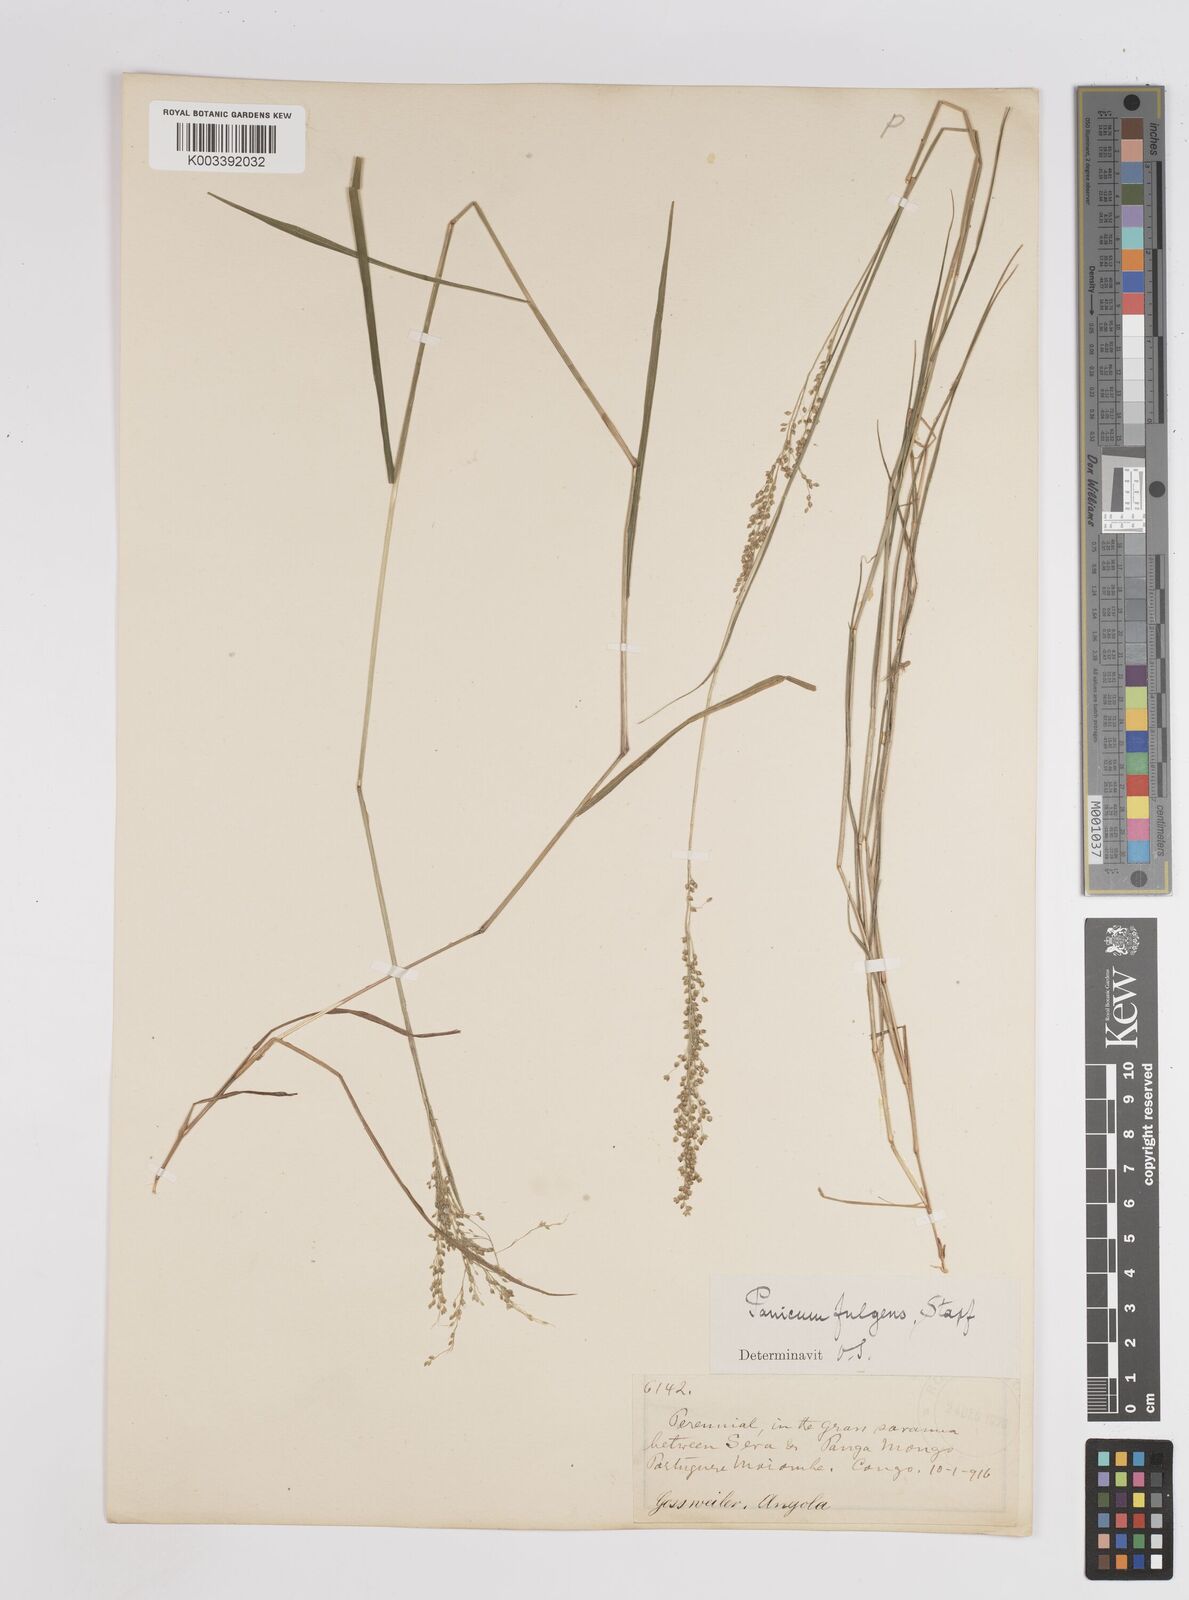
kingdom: Plantae
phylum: Tracheophyta
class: Liliopsida
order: Poales
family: Poaceae
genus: Trichanthecium
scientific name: Trichanthecium nervatum
